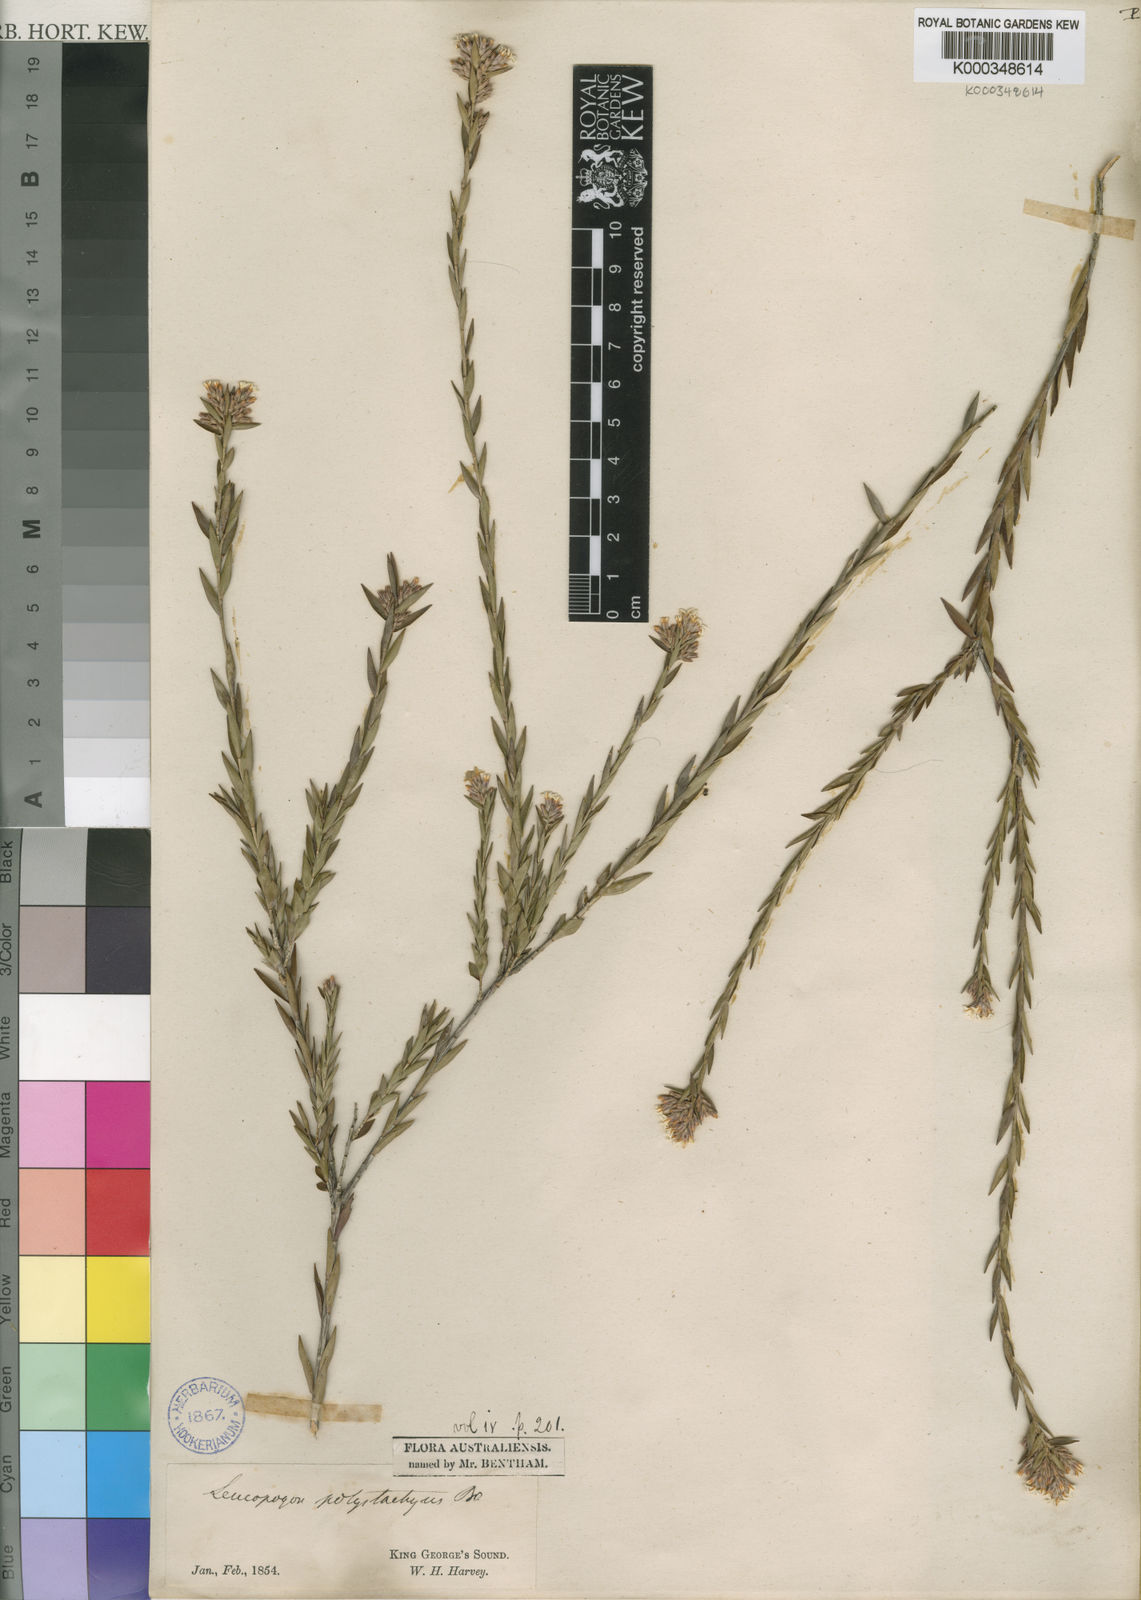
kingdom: Plantae
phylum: Tracheophyta
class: Magnoliopsida
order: Ericales
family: Ericaceae
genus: Leucopogon
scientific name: Leucopogon polystachyus
